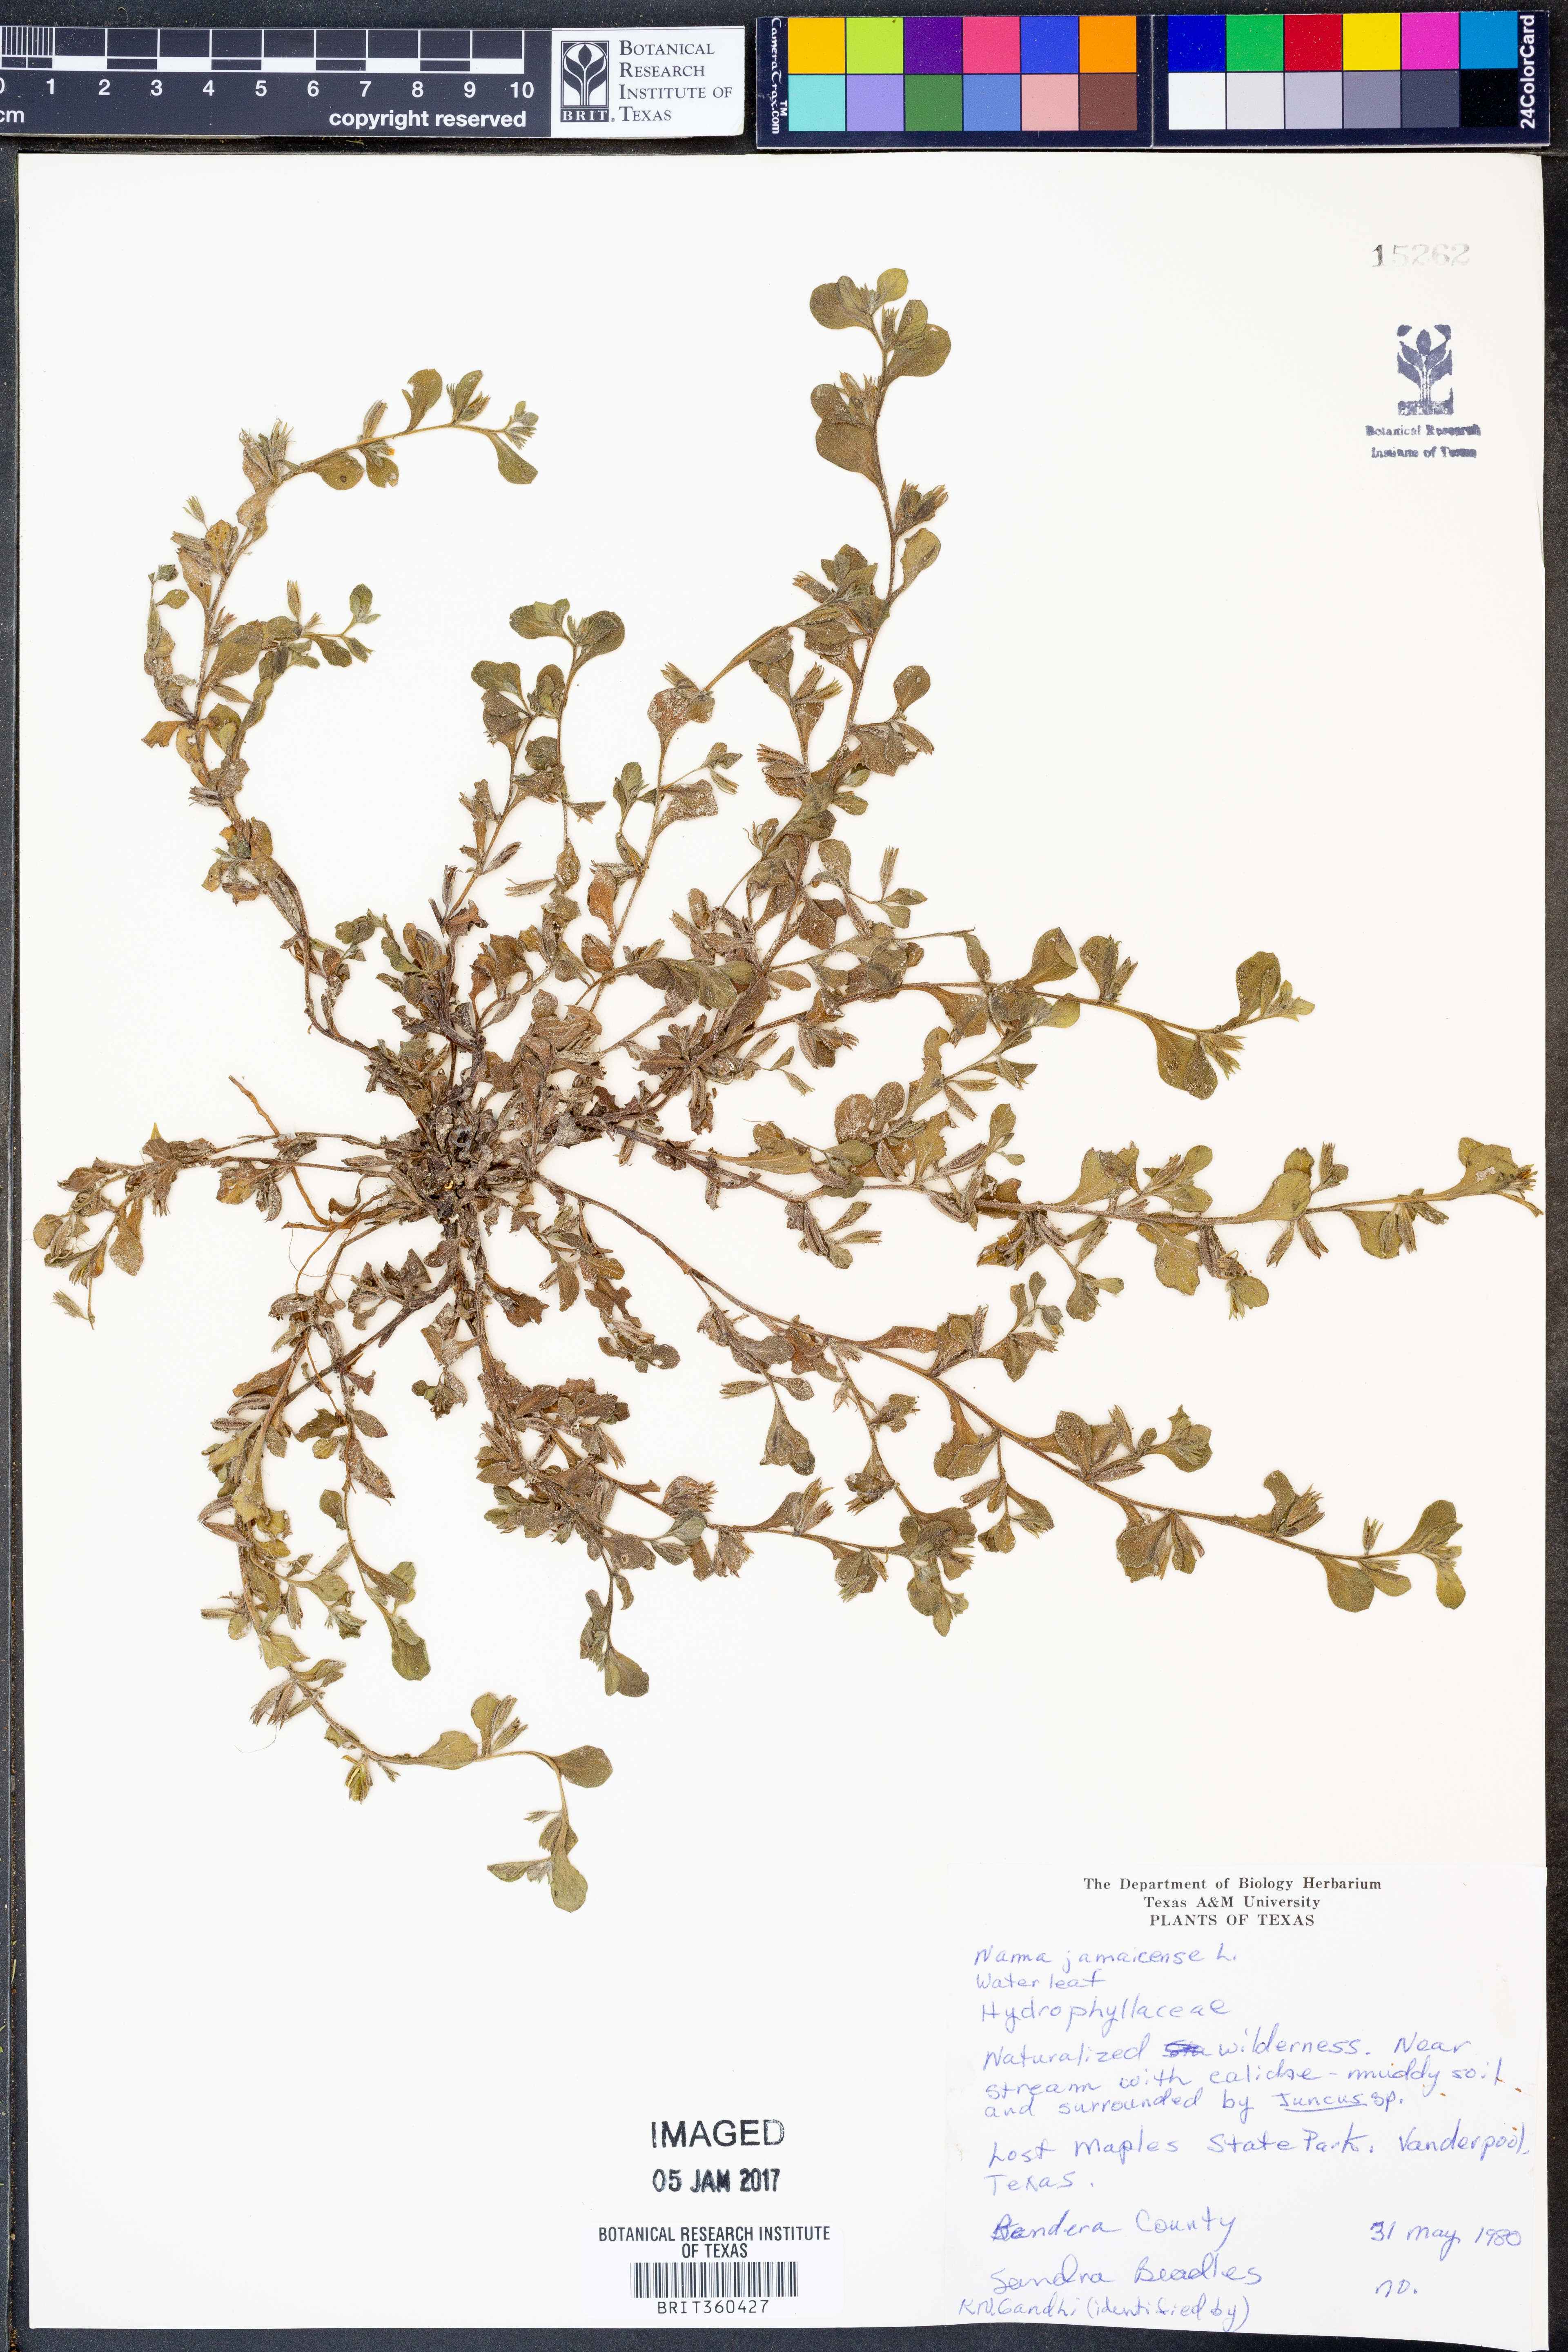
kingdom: Plantae
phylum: Tracheophyta
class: Magnoliopsida
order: Boraginales
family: Namaceae
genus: Nama
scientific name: Nama jamaicense
